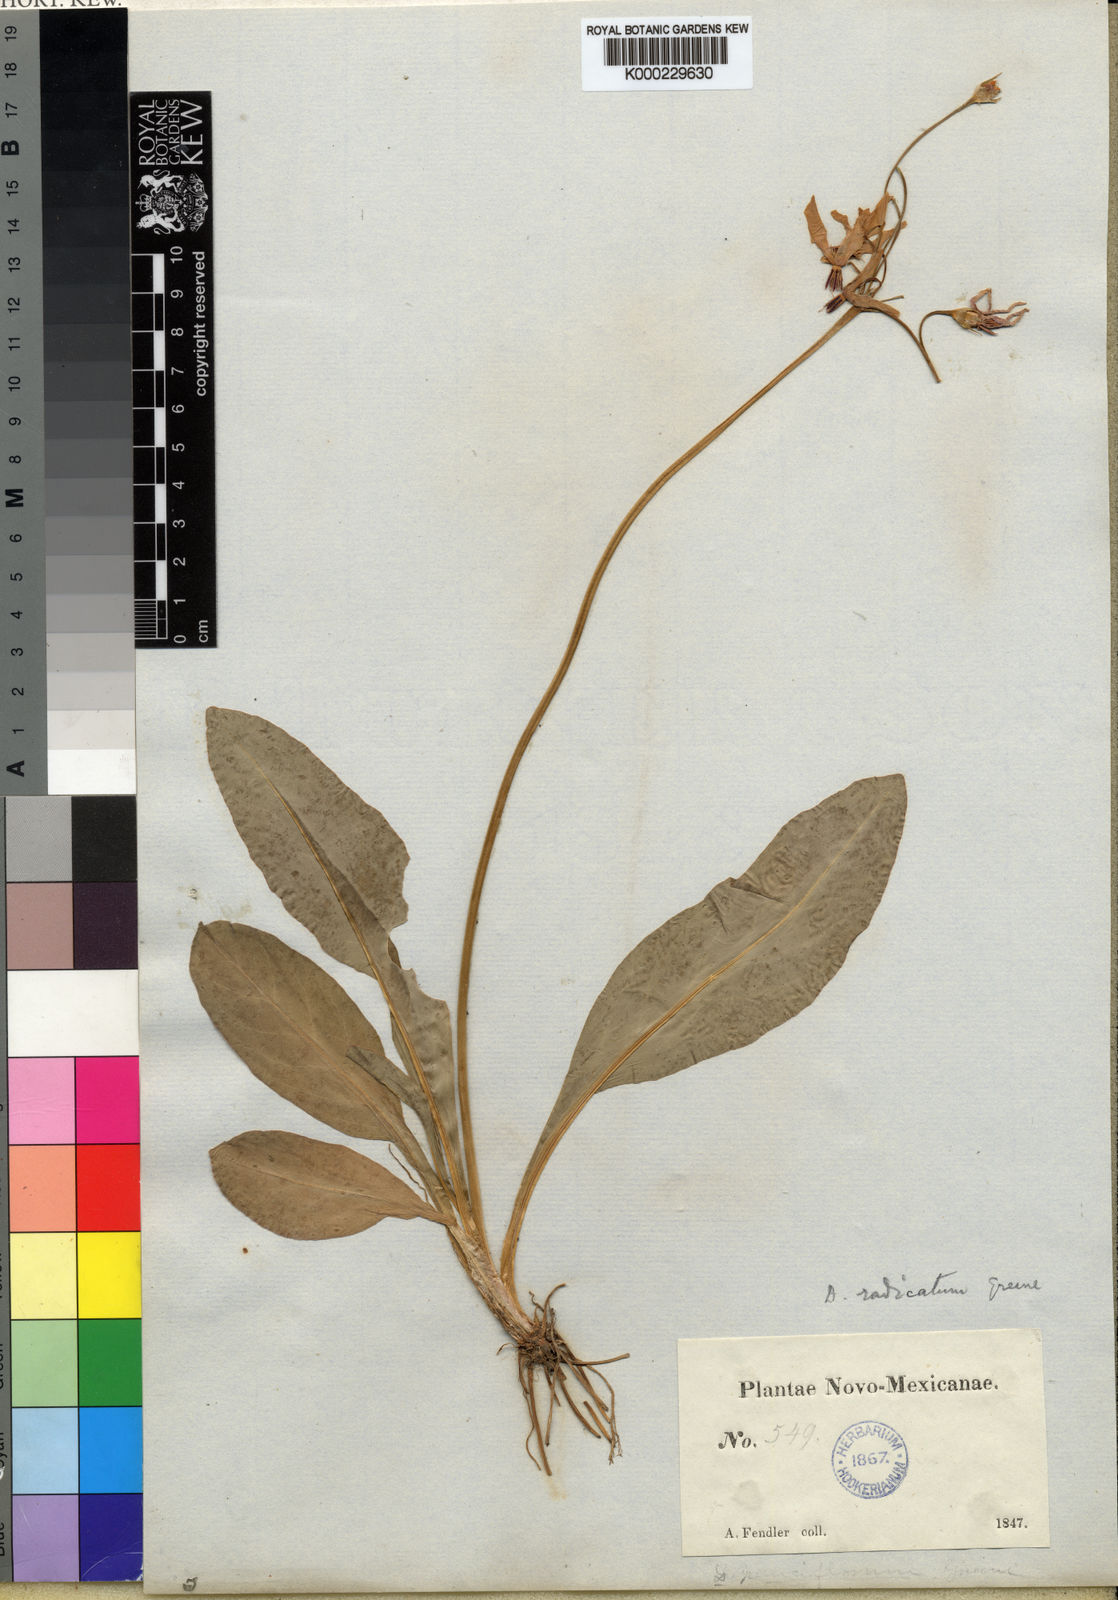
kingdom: Plantae
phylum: Tracheophyta
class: Magnoliopsida
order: Ericales
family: Primulaceae
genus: Dodecatheon
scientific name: Dodecatheon pulchellum
